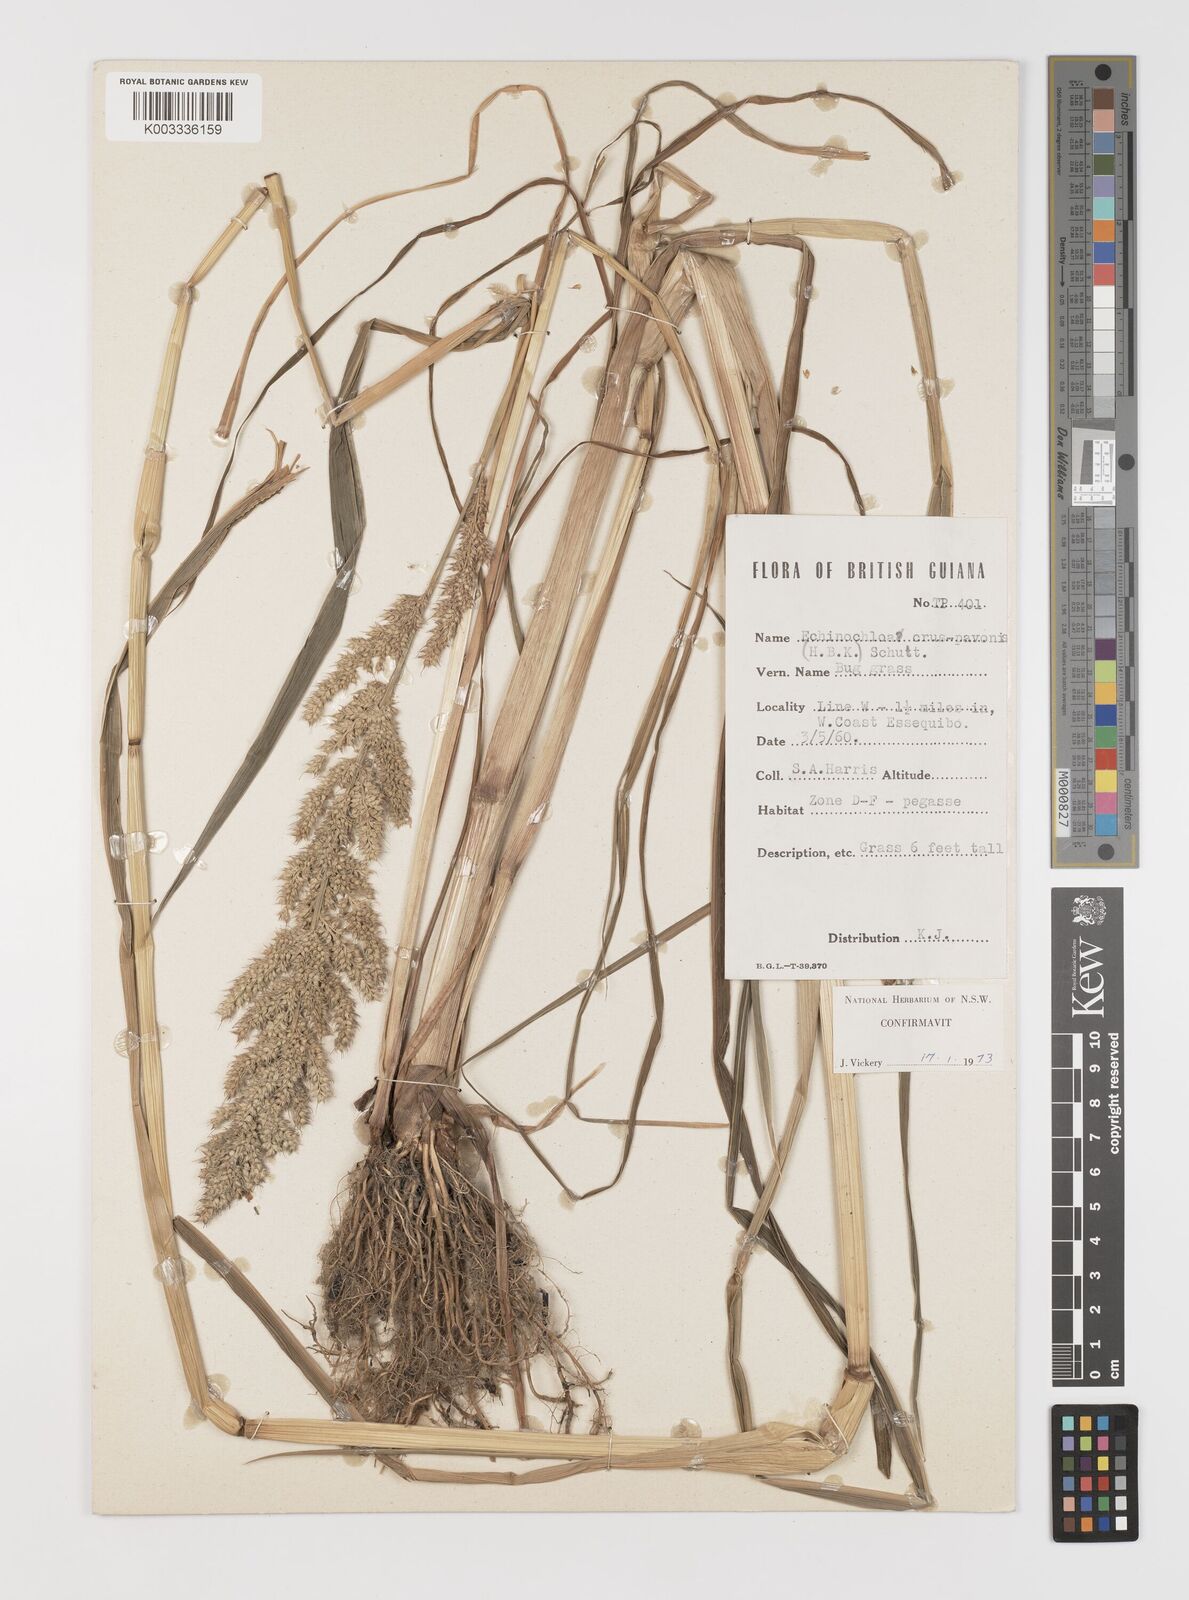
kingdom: Plantae
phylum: Tracheophyta
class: Liliopsida
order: Poales
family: Poaceae
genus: Echinochloa
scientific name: Echinochloa crus-pavonis
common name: Gulf cockspur grass
